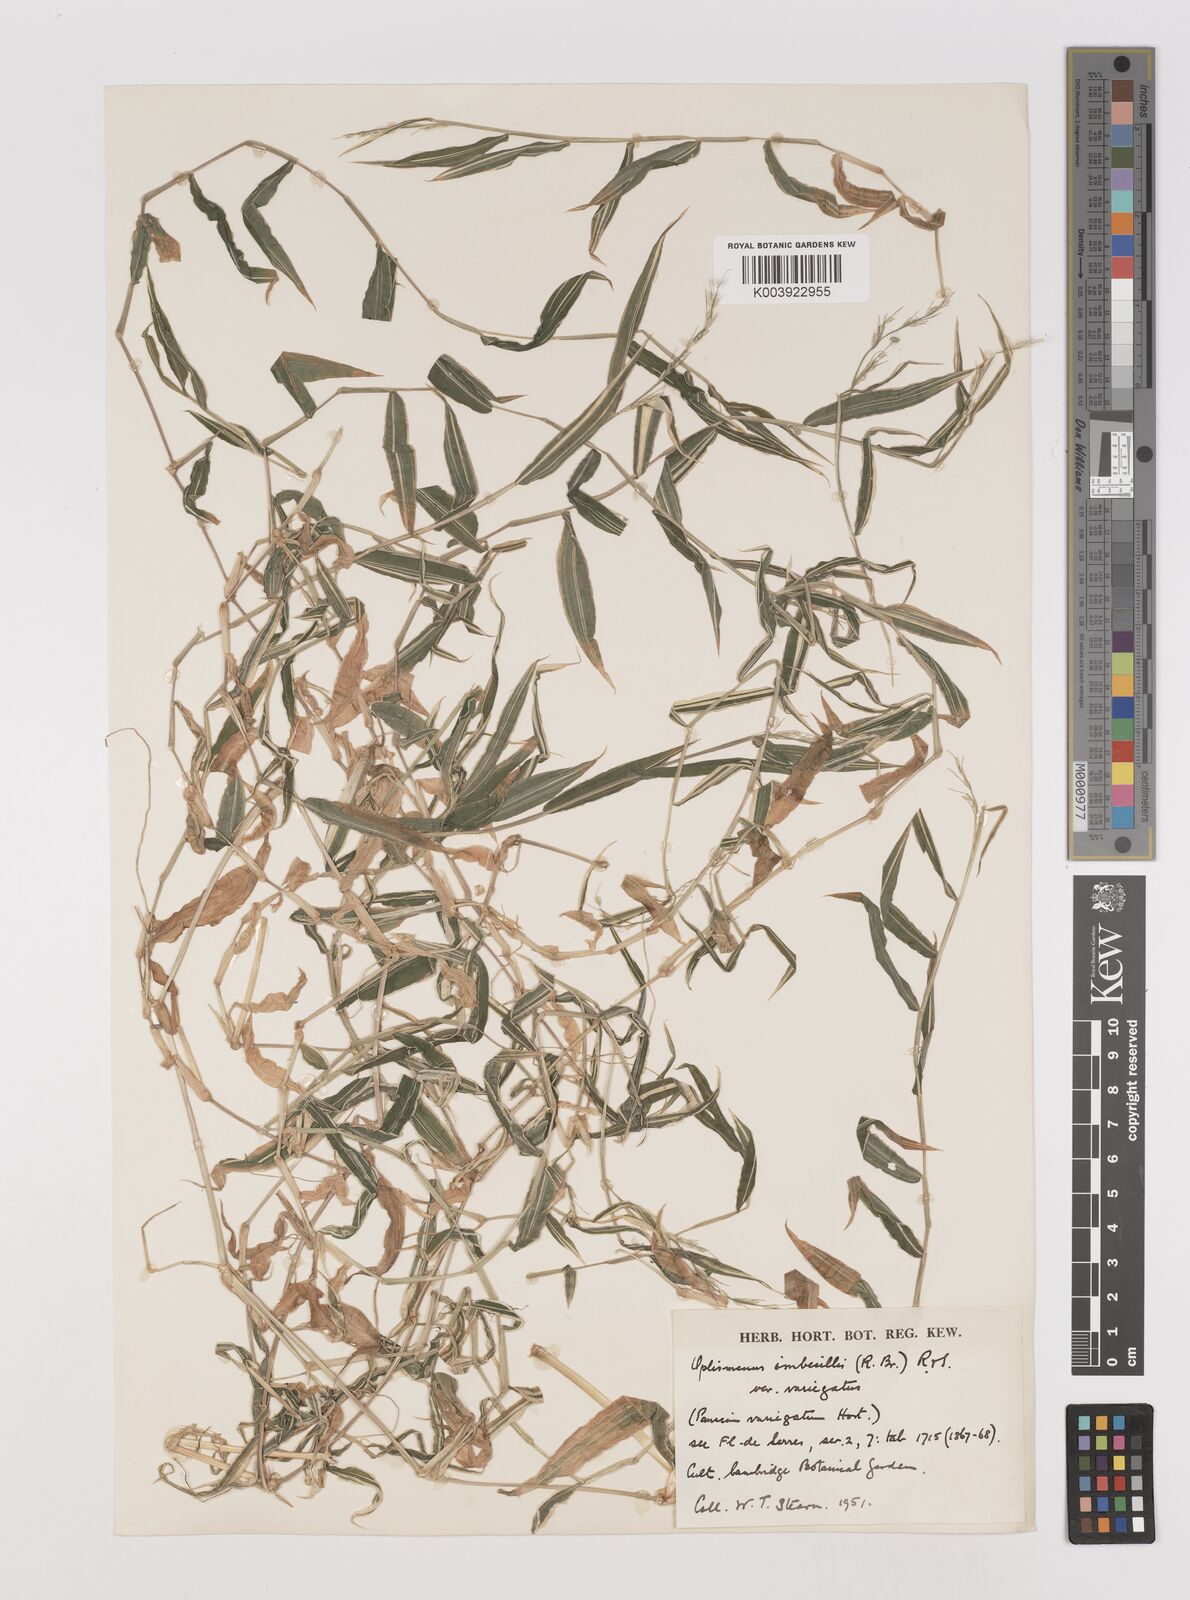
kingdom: Plantae
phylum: Tracheophyta
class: Liliopsida
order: Poales
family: Poaceae
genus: Oplismenus
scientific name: Oplismenus hirtellus
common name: Basketgrass
